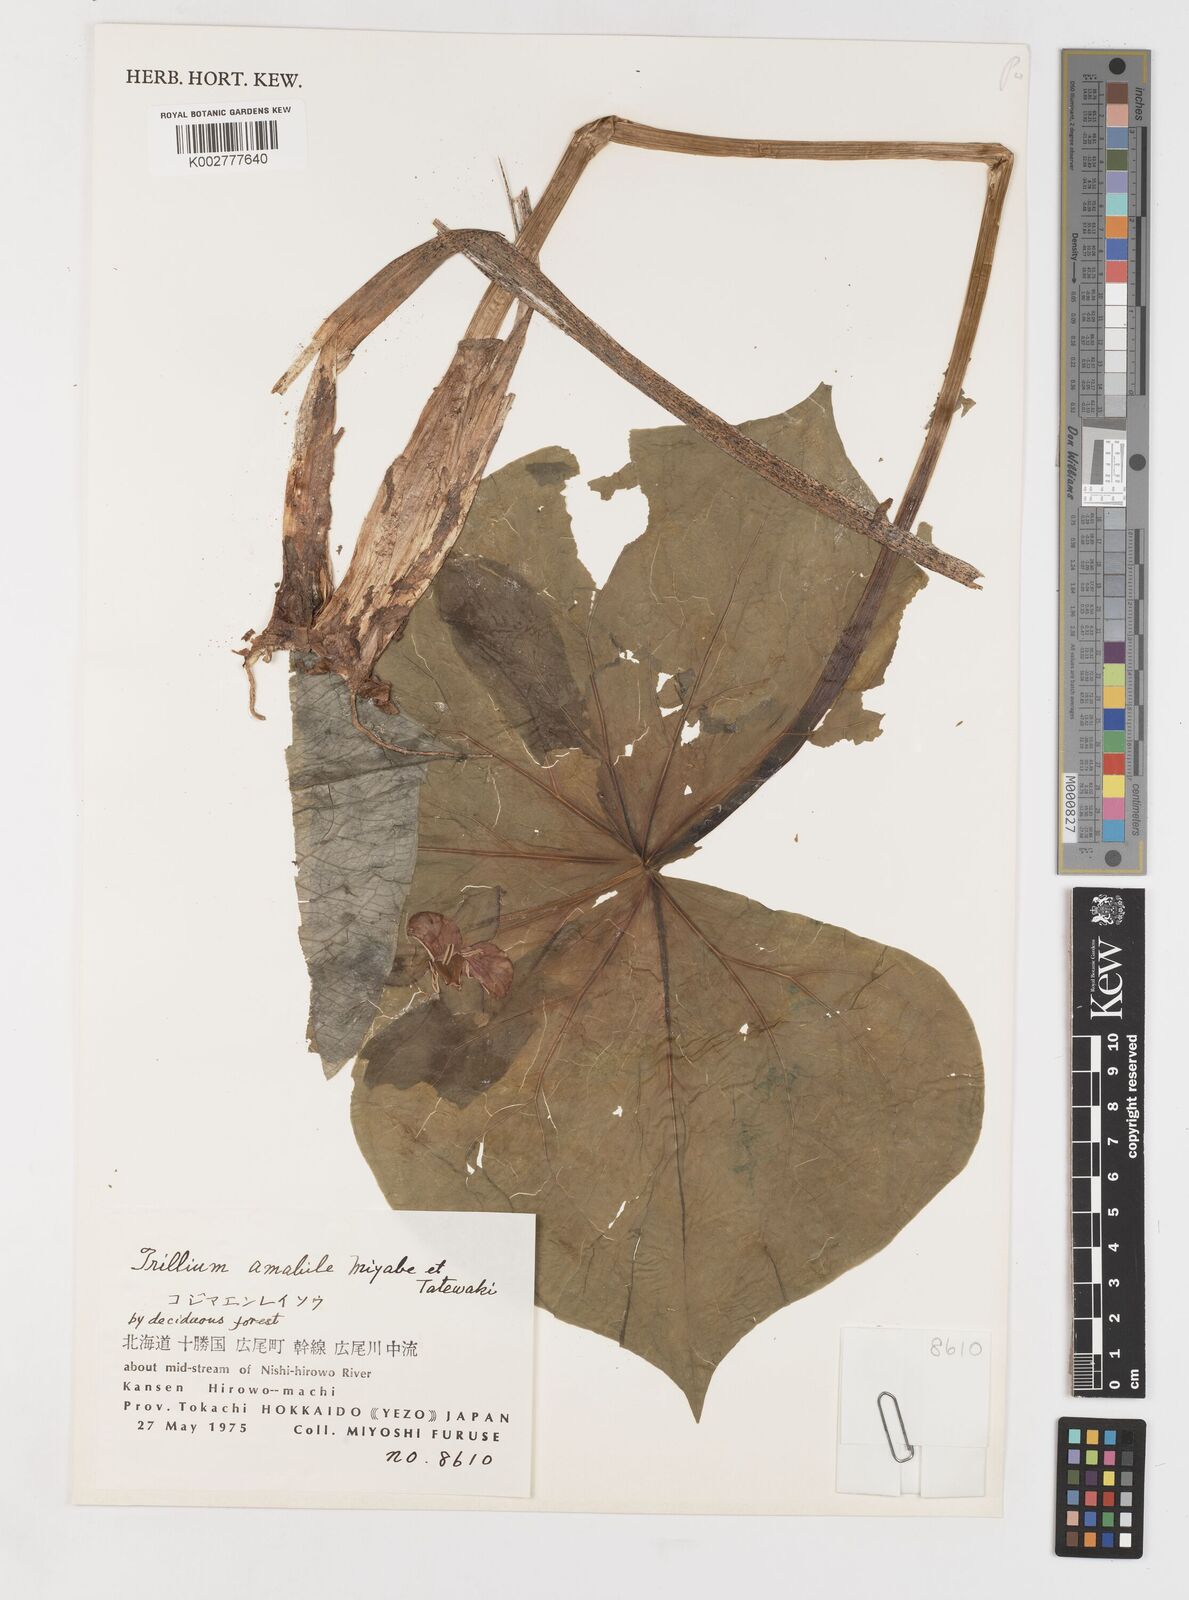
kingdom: Plantae
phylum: Tracheophyta
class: Liliopsida
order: Liliales
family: Melanthiaceae
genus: Trillium
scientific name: Trillium smallii
